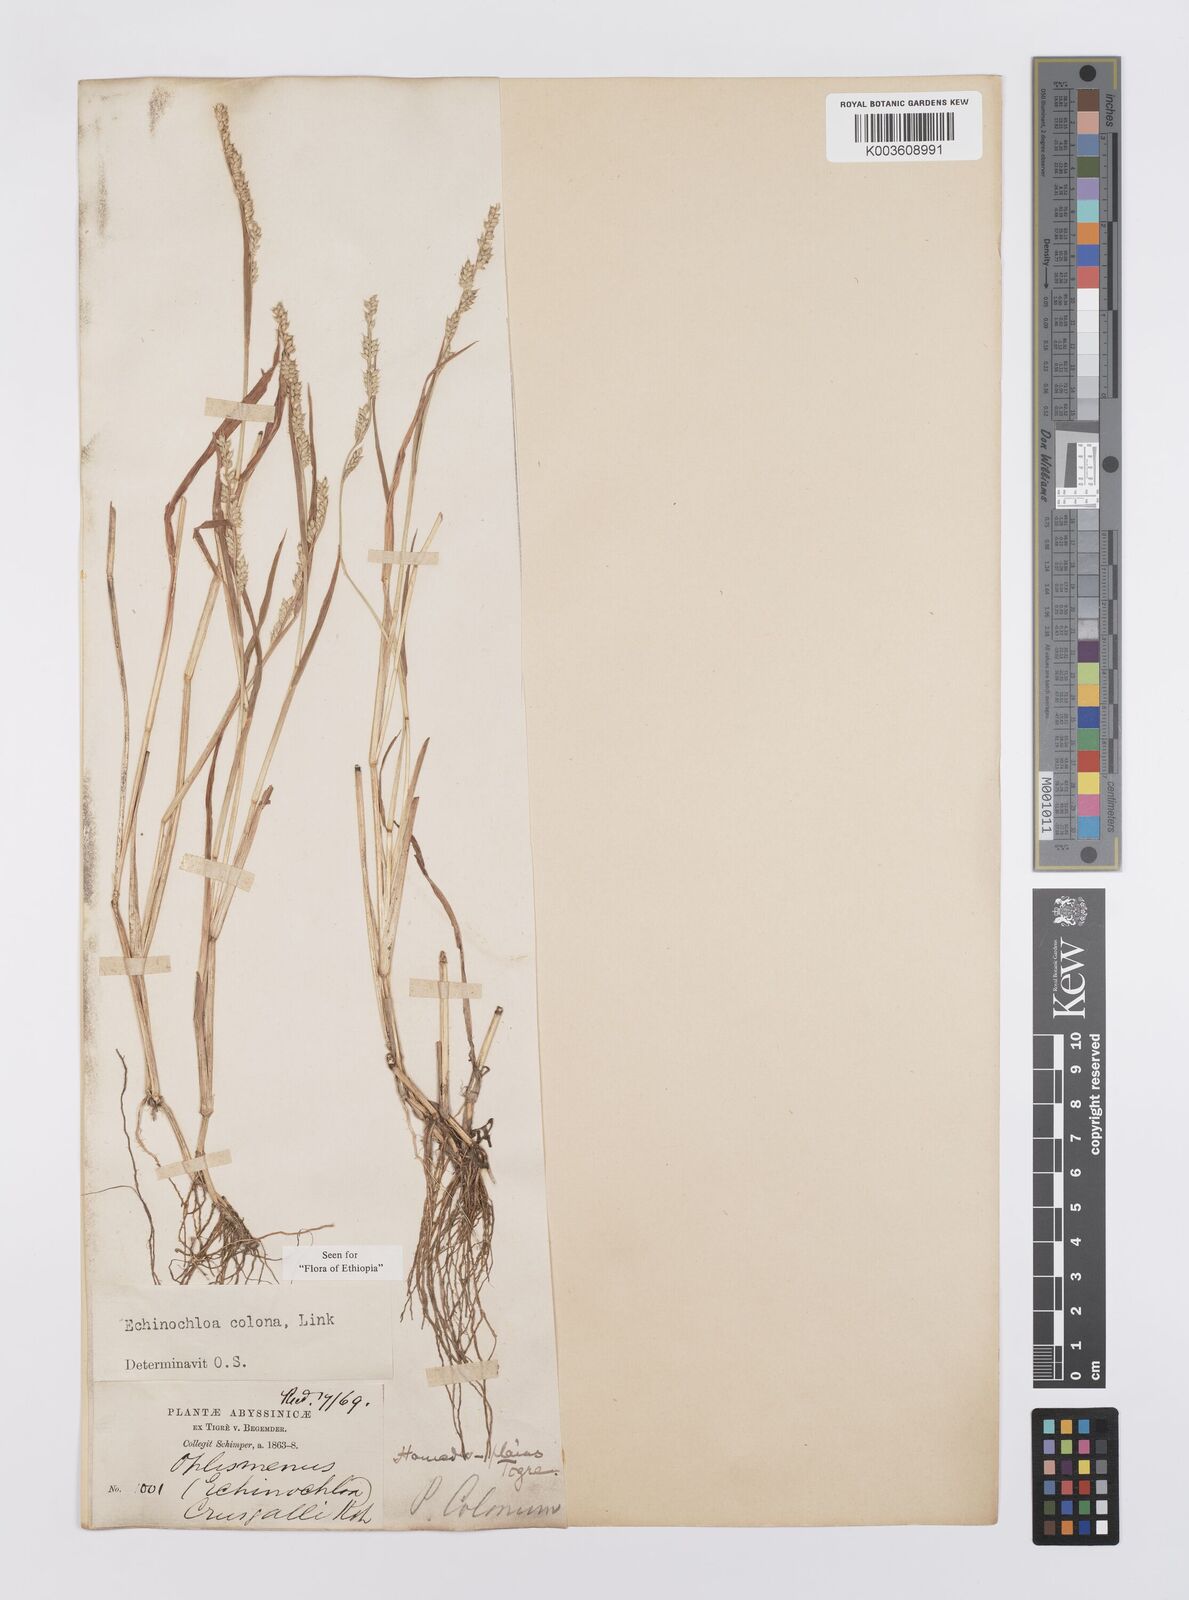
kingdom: Plantae
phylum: Tracheophyta
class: Liliopsida
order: Poales
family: Poaceae
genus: Echinochloa
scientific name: Echinochloa colonum
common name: Jungle rice
